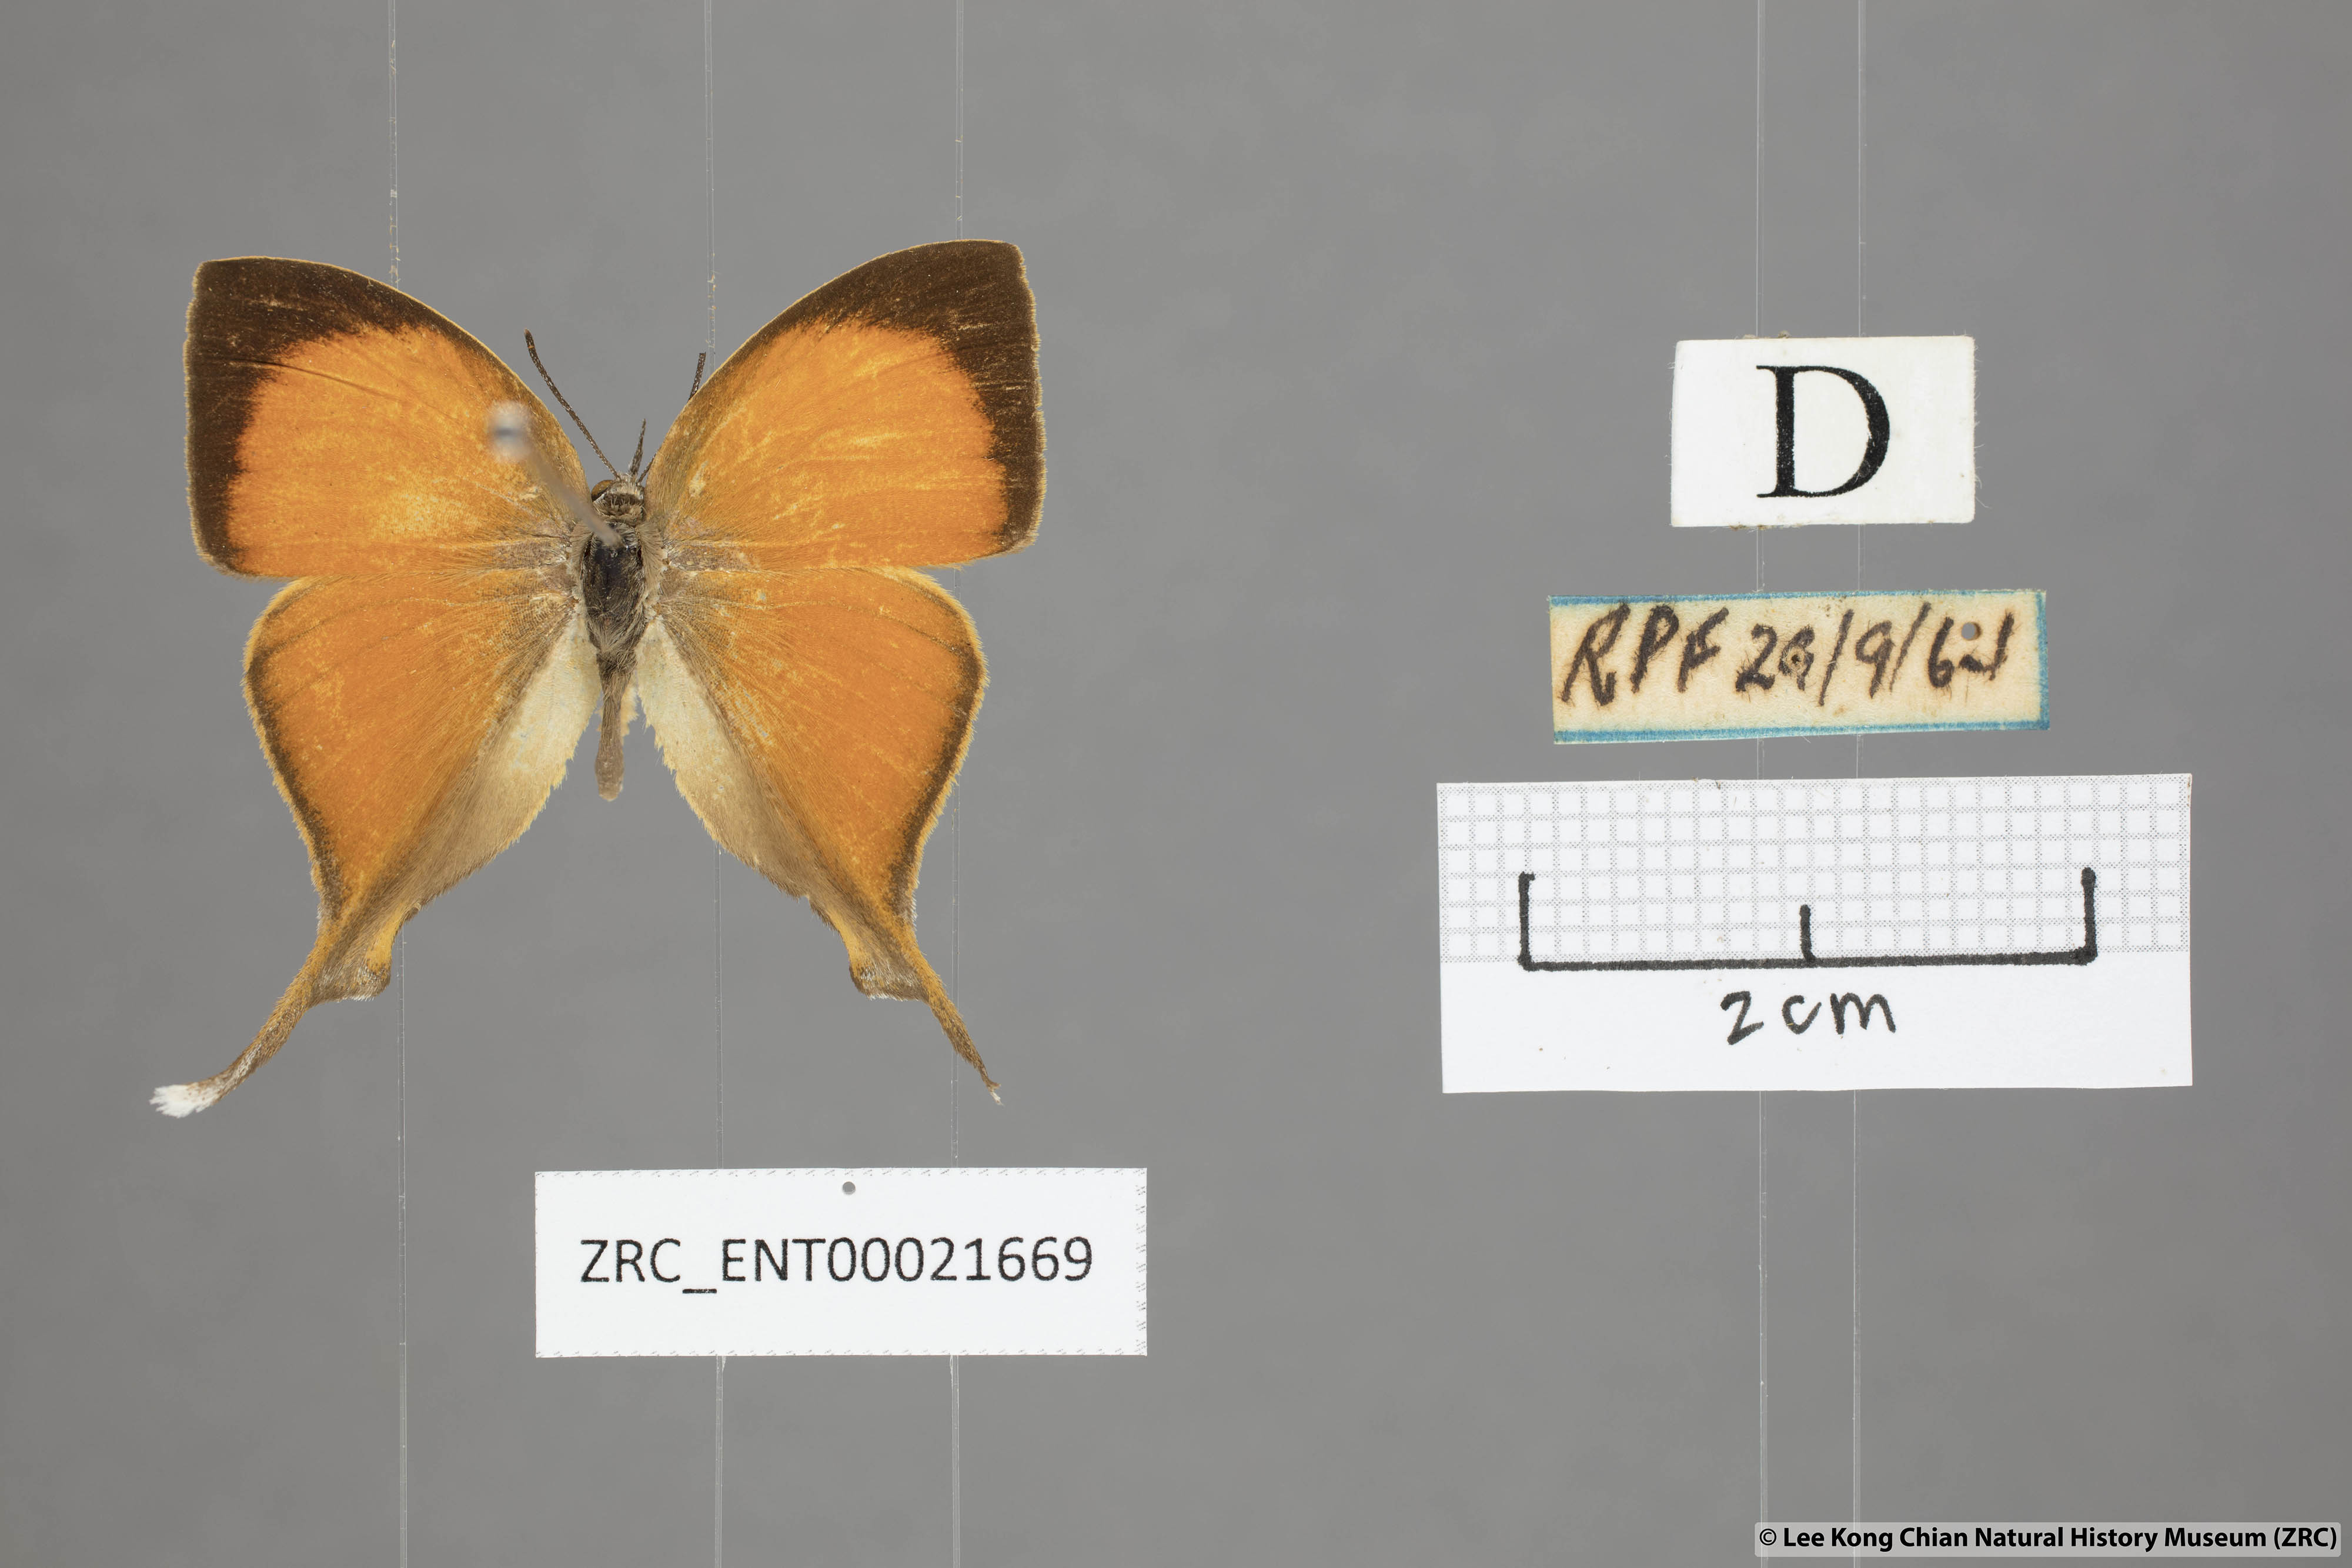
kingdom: Animalia
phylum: Arthropoda
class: Insecta
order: Lepidoptera
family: Lycaenidae
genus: Loxura
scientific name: Loxura atymnus
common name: Common yamfly
